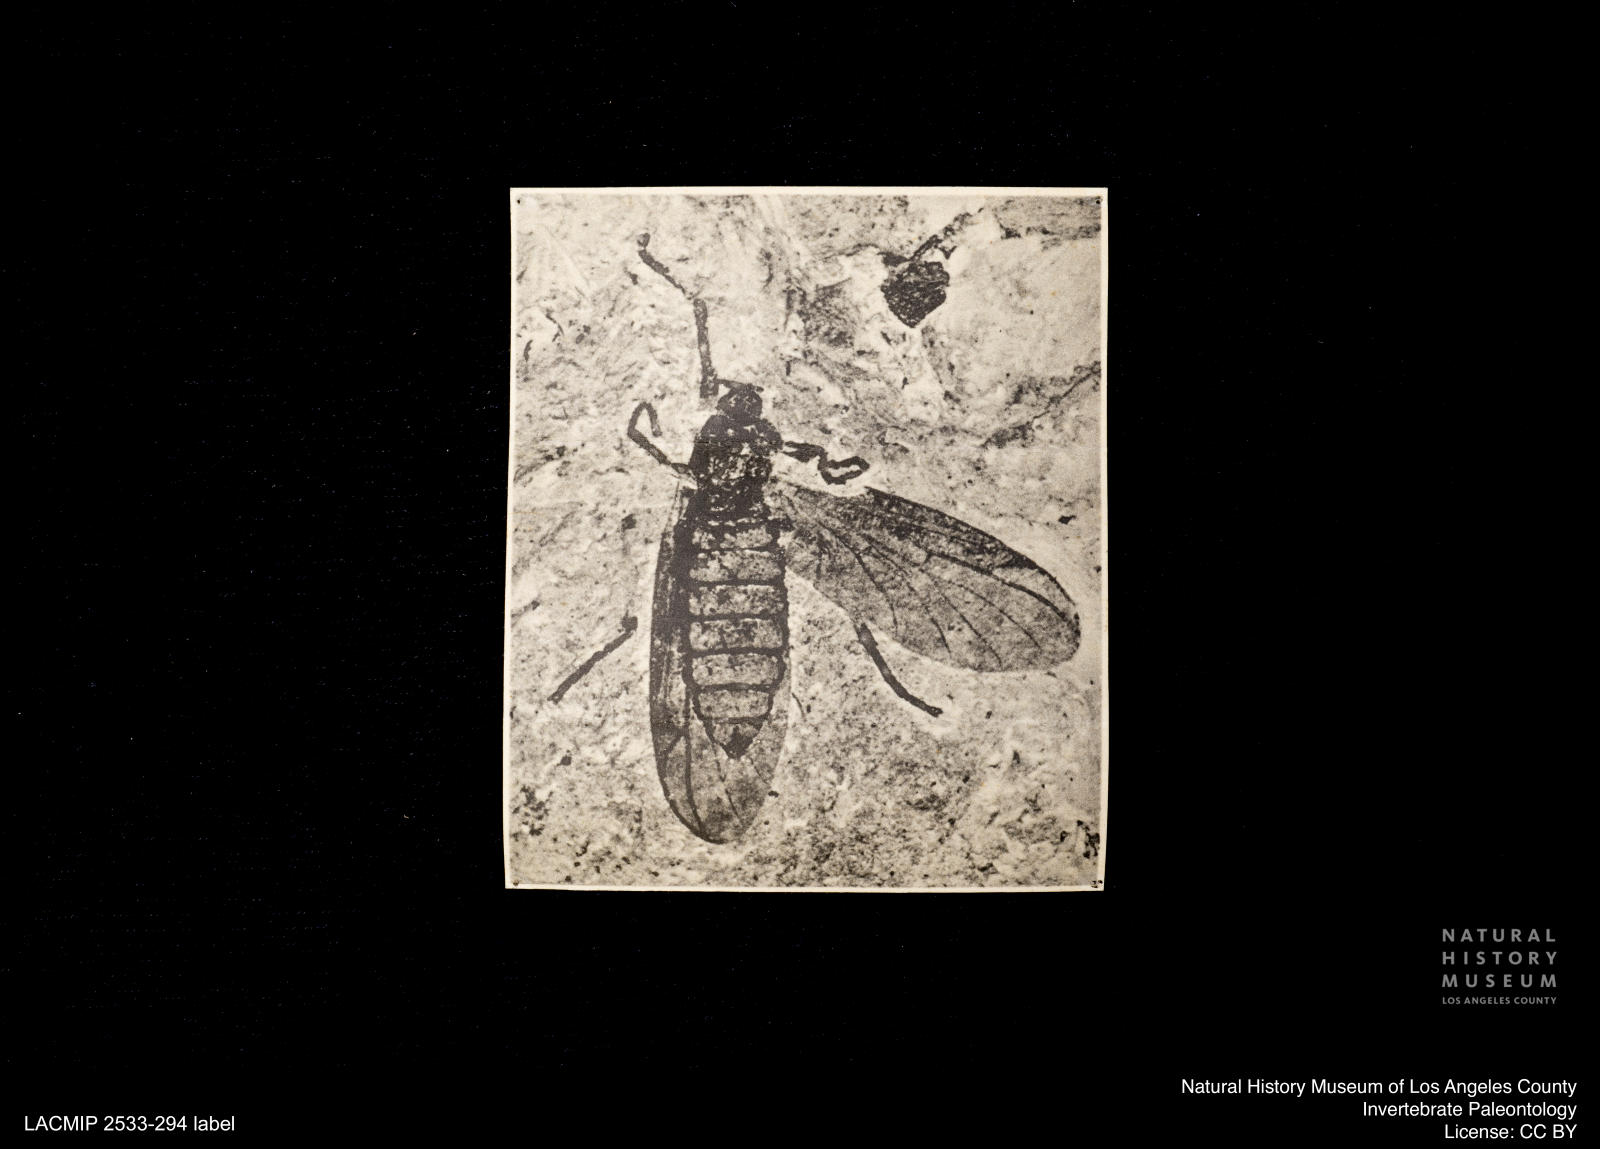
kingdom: Animalia
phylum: Arthropoda
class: Insecta
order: Diptera
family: Bibionidae
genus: Plecia
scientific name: Plecia stygia
